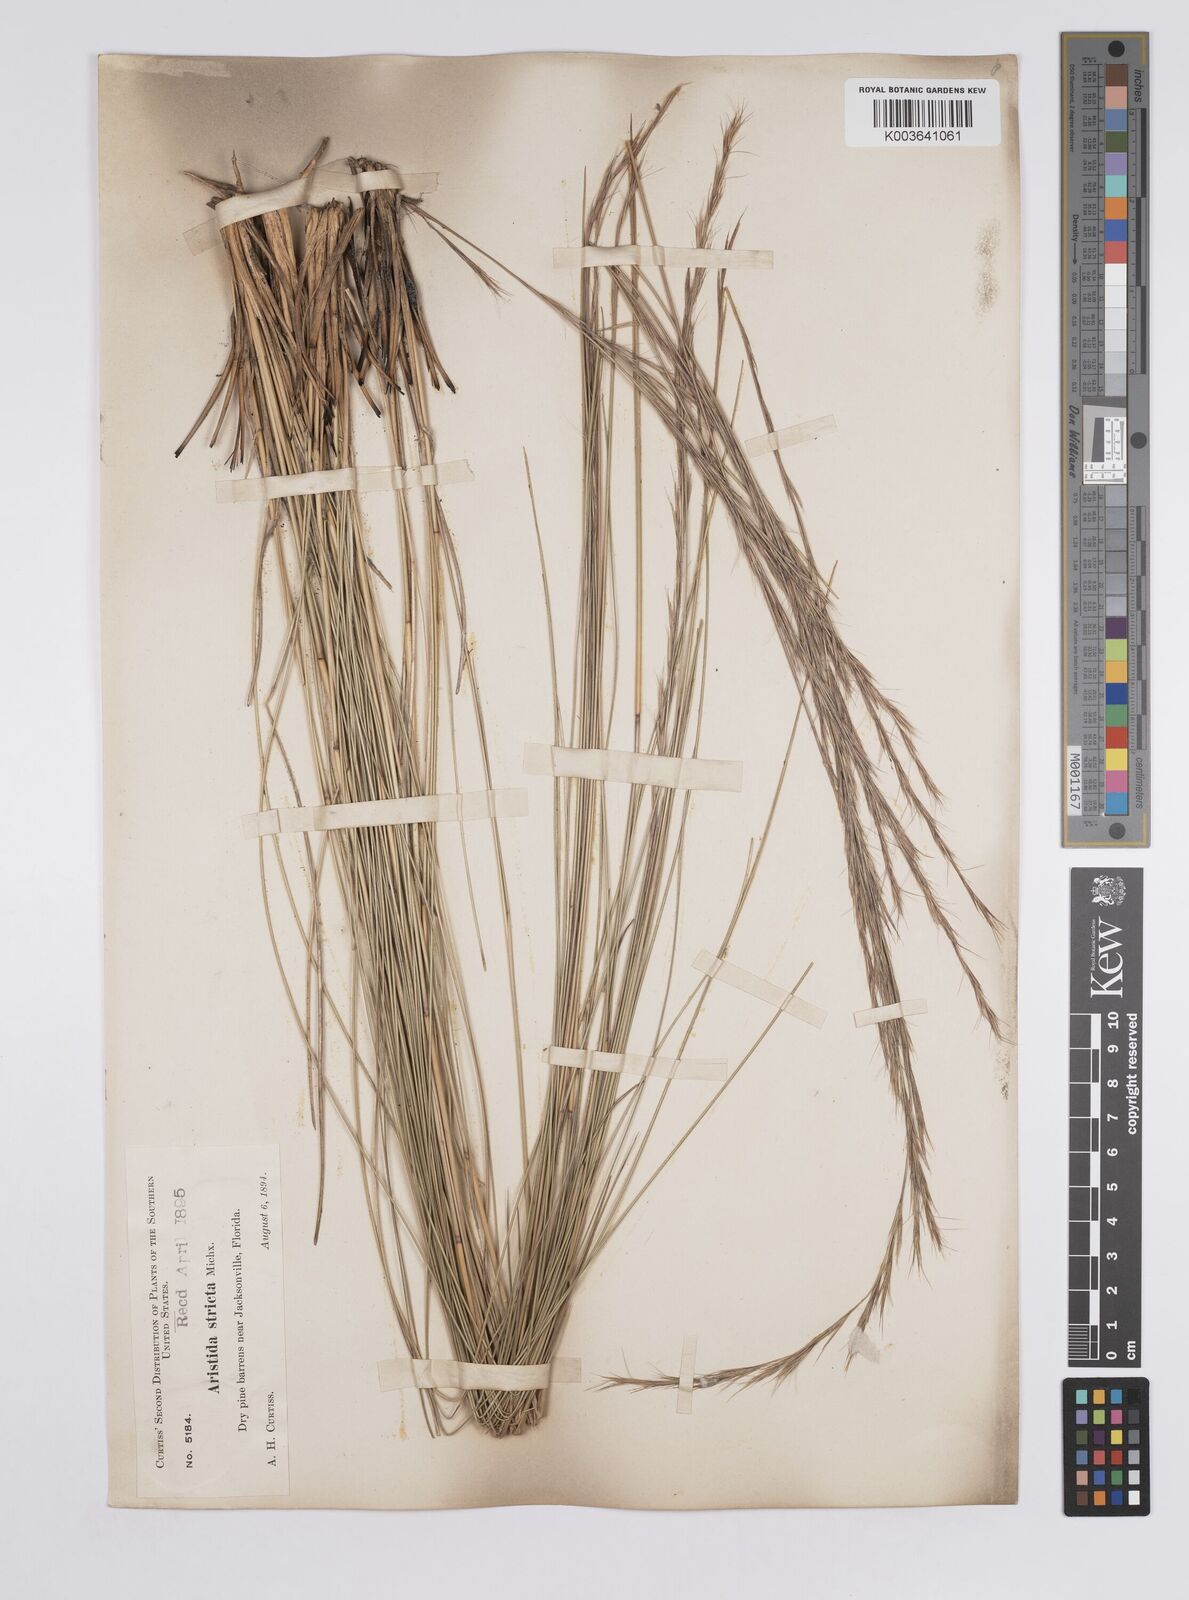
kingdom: Plantae
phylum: Tracheophyta
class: Liliopsida
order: Poales
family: Poaceae
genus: Aristida
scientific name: Aristida stricta
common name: Pineland three-awn
